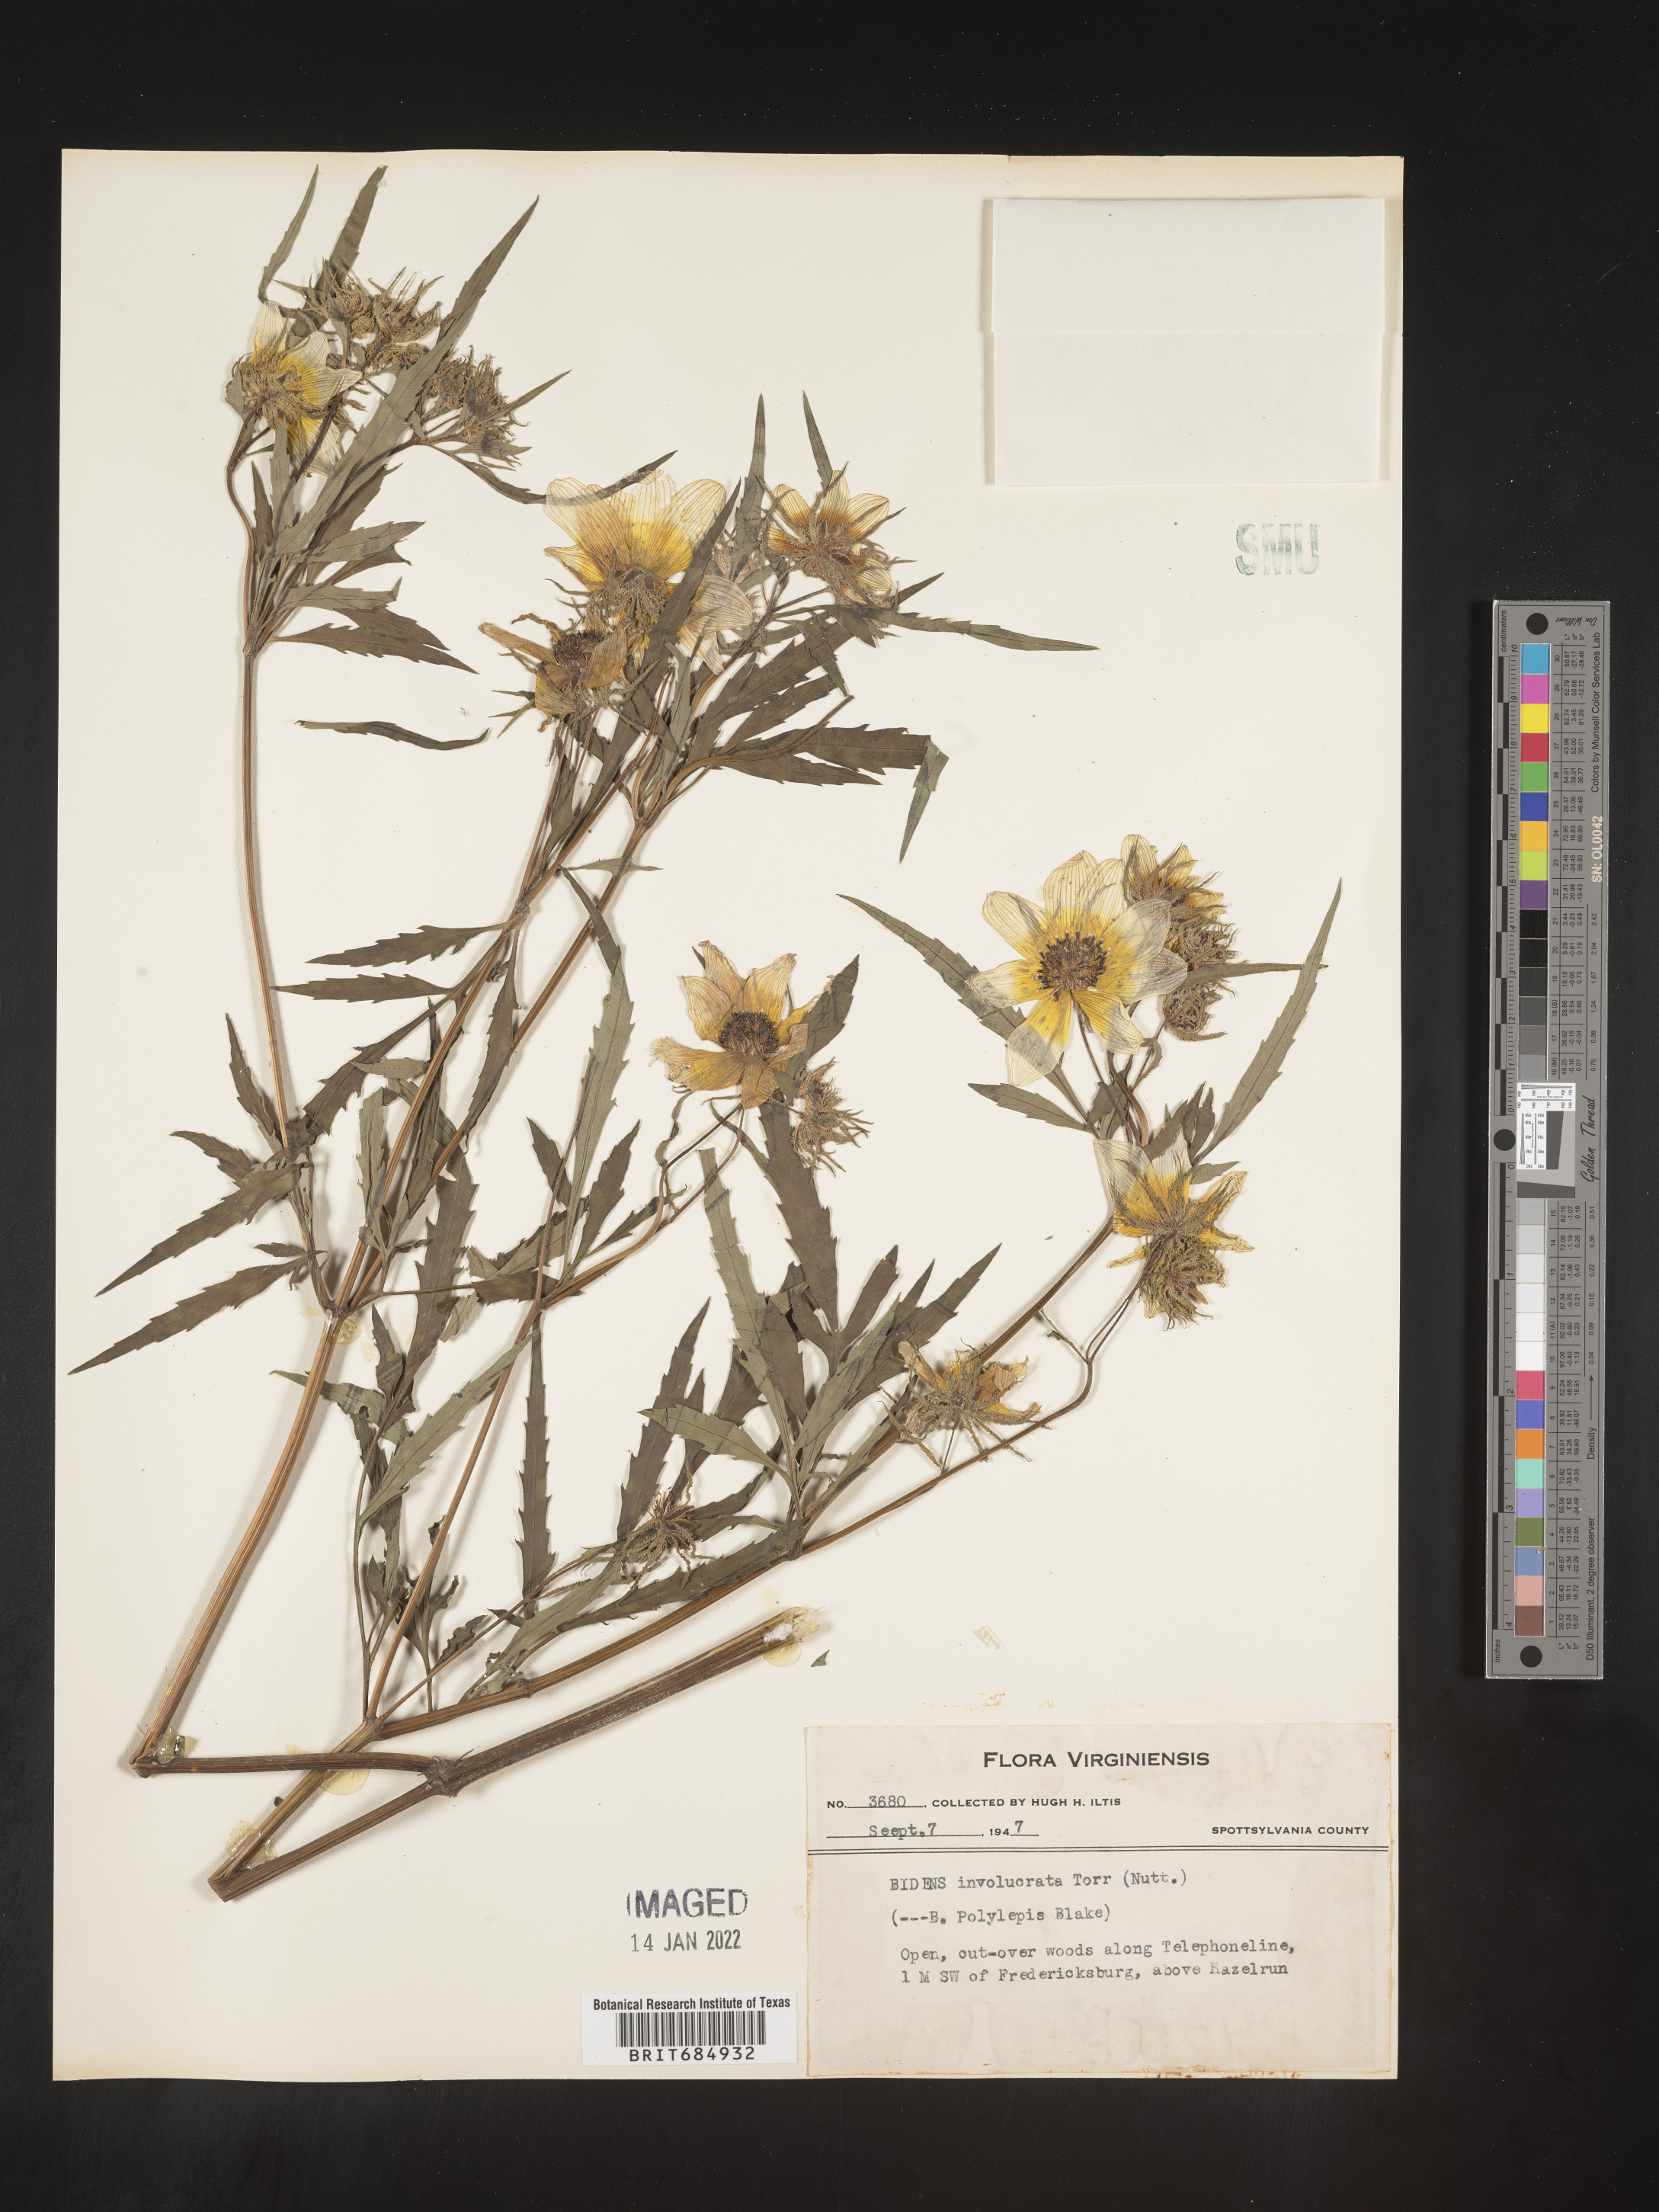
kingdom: Plantae
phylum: Tracheophyta
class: Magnoliopsida
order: Asterales
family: Asteraceae
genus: Bidens
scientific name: Bidens polylepis
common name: Awnless beggarticks
